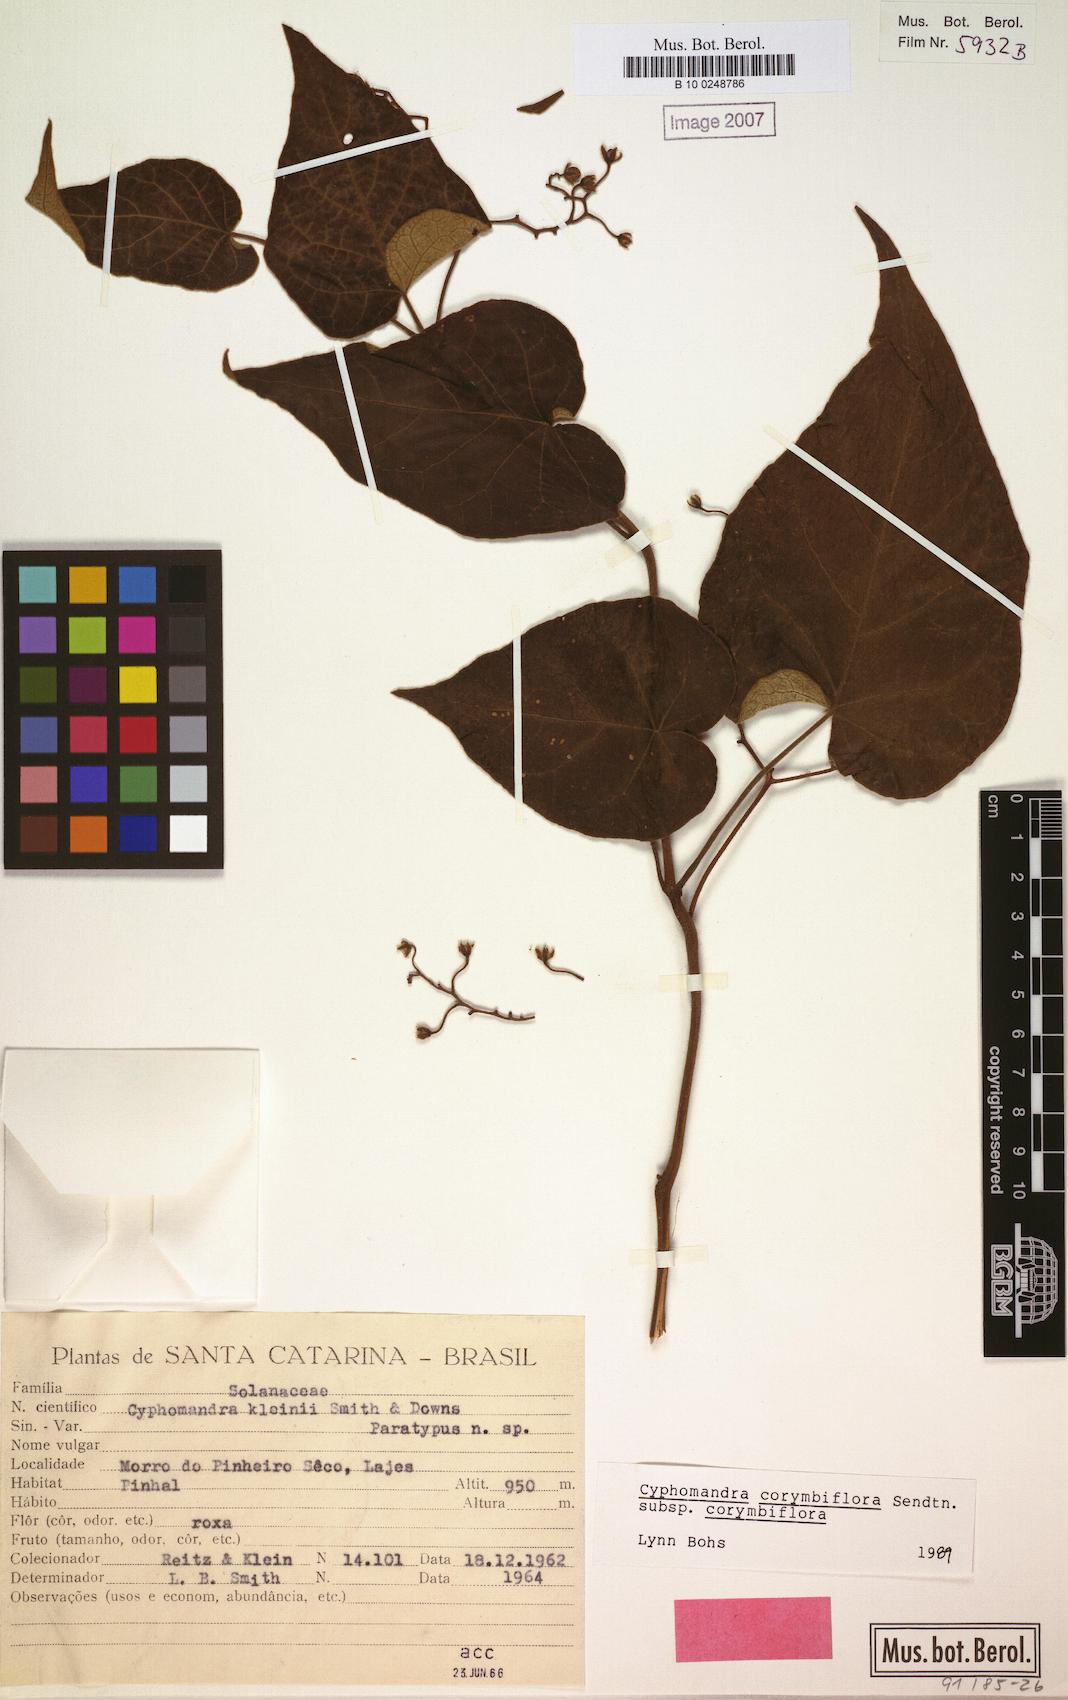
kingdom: Plantae
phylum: Tracheophyta
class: Magnoliopsida
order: Solanales
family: Solanaceae
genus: Solanum
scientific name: Solanum corymbiflorum
